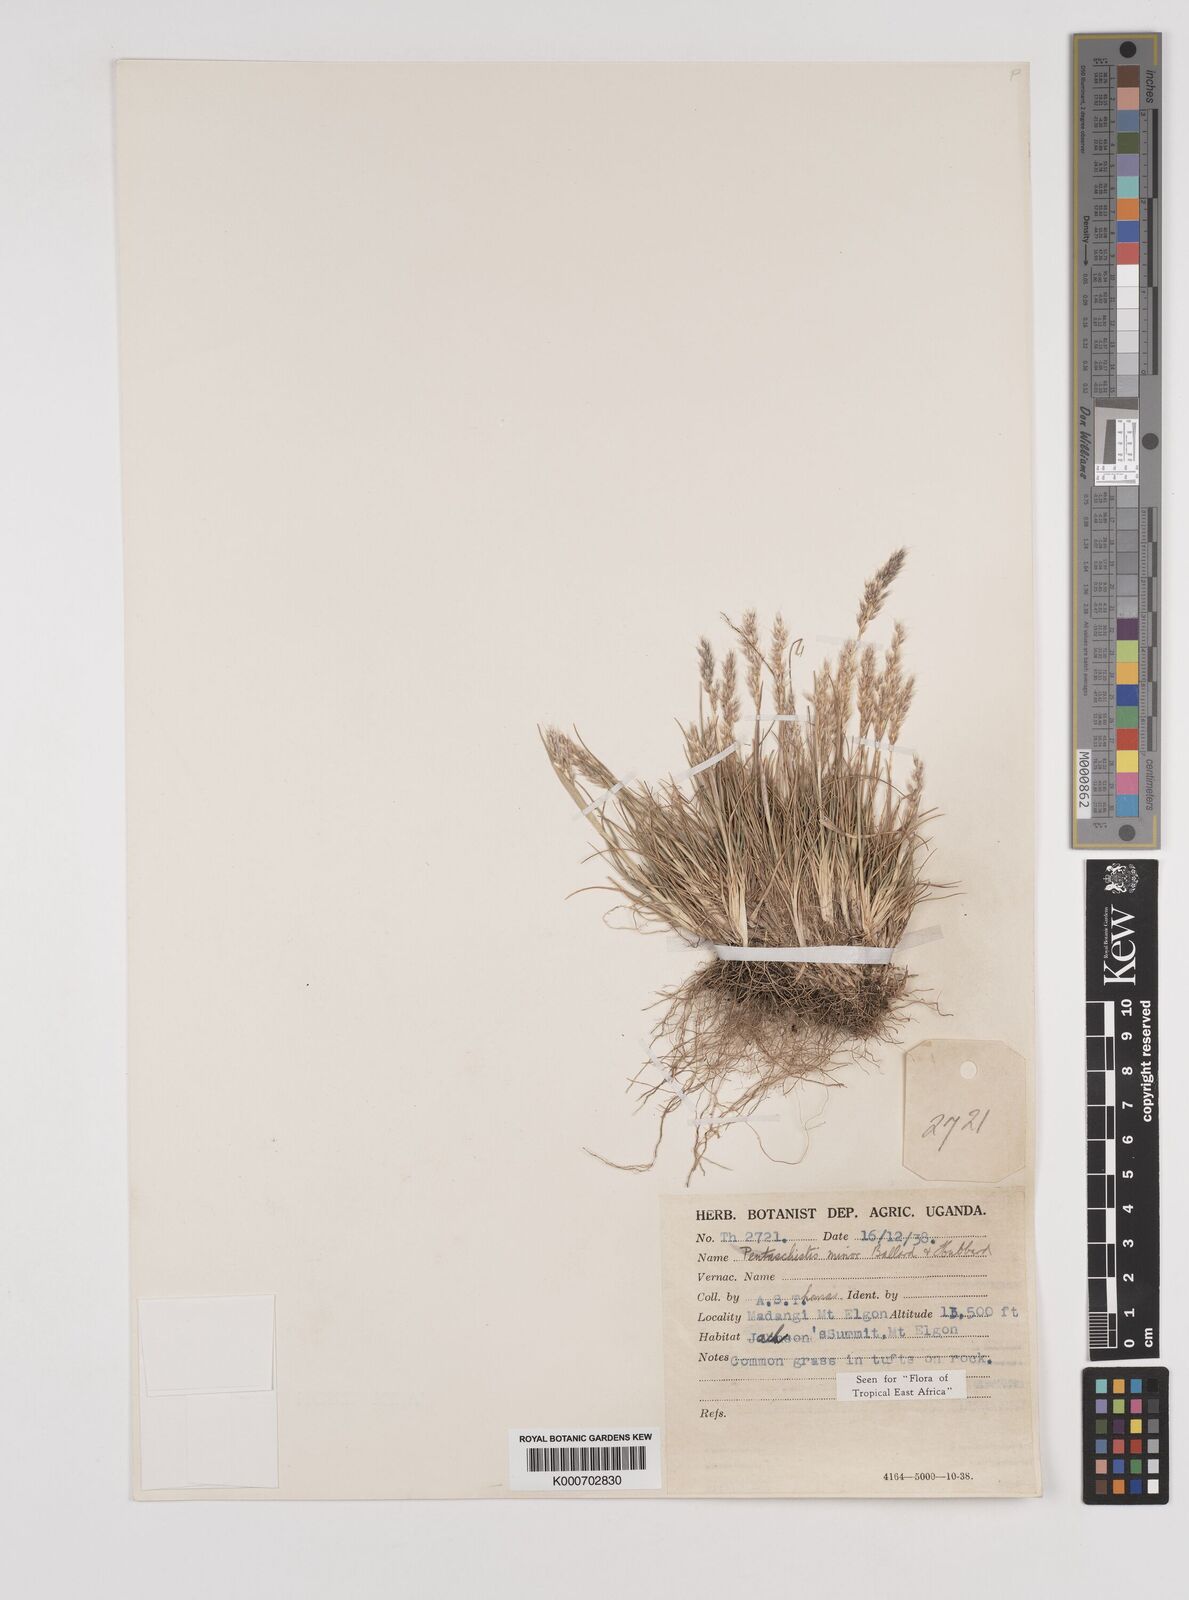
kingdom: Plantae
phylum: Tracheophyta
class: Liliopsida
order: Poales
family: Poaceae
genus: Pentameris
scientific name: Pentameris minor
